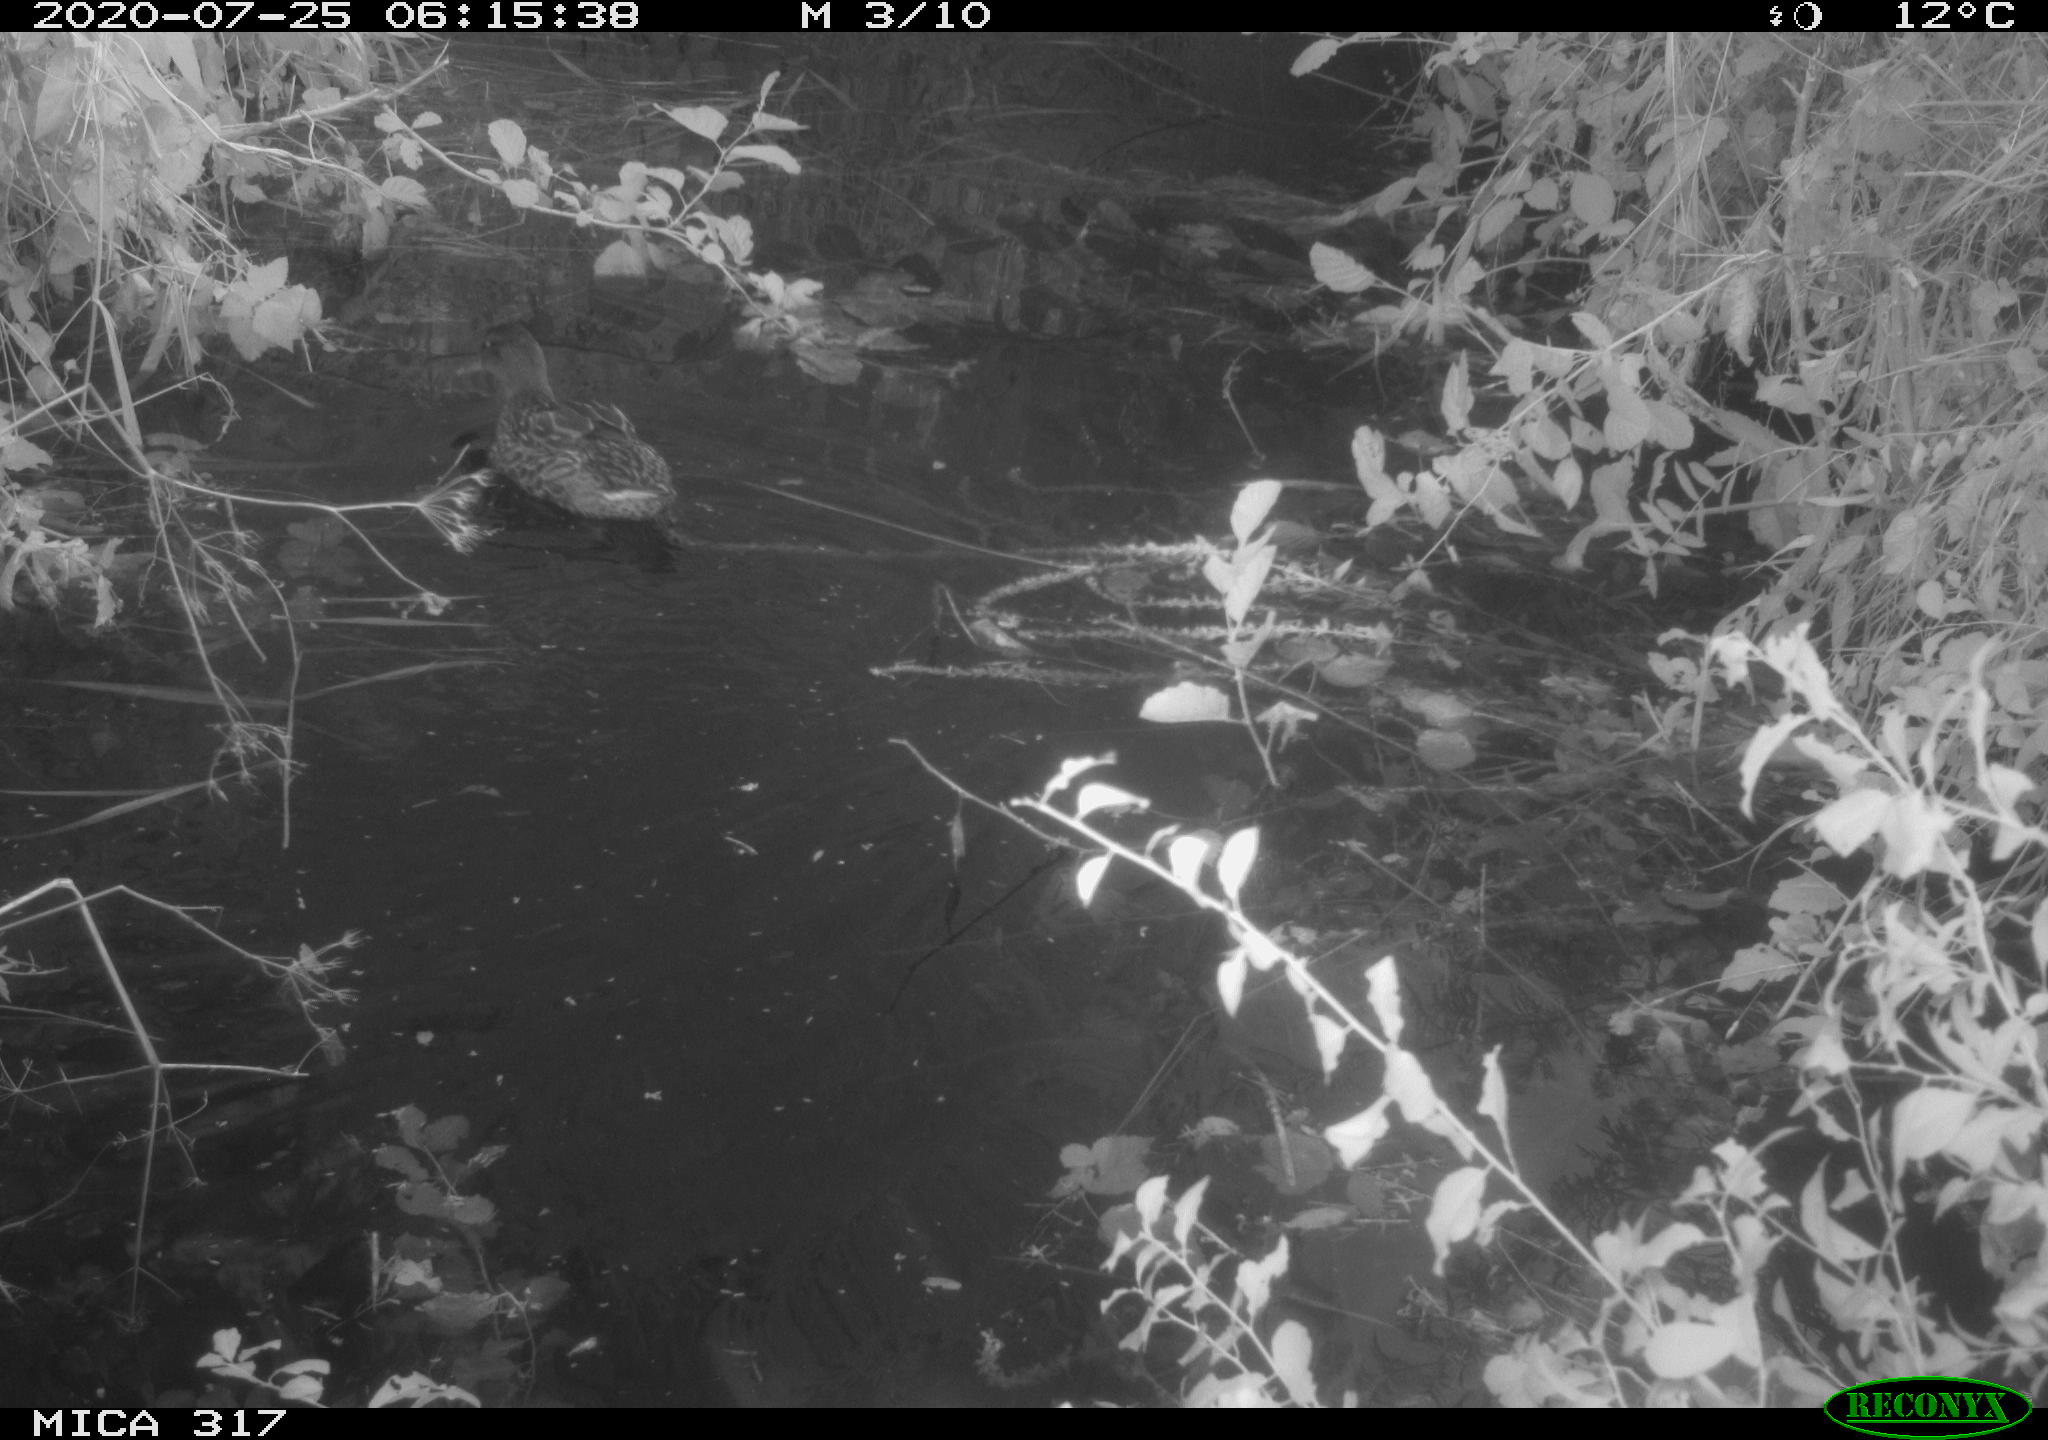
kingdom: Animalia
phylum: Chordata
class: Aves
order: Anseriformes
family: Anatidae
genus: Anas
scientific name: Anas platyrhynchos
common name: Mallard
